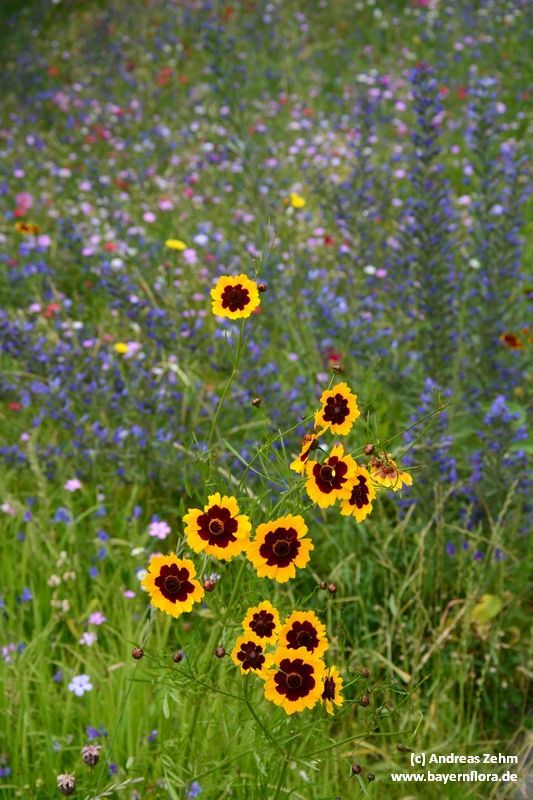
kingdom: Plantae
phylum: Tracheophyta
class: Magnoliopsida
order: Asterales
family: Asteraceae
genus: Coreopsis
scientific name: Coreopsis tinctoria
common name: Garden tickseed
